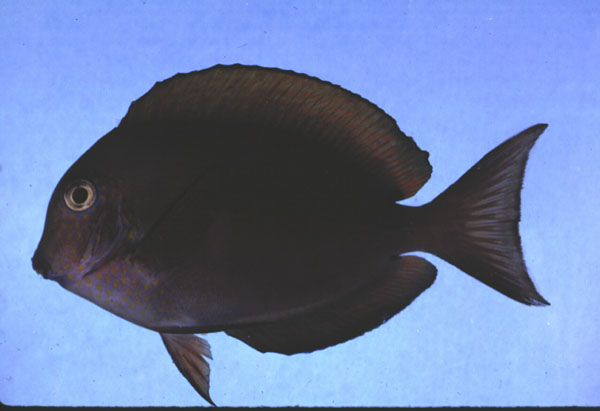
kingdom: Animalia
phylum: Chordata
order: Perciformes
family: Acanthuridae
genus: Acanthurus
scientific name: Acanthurus nigrofuscus
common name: Blackspot surgeonfish
